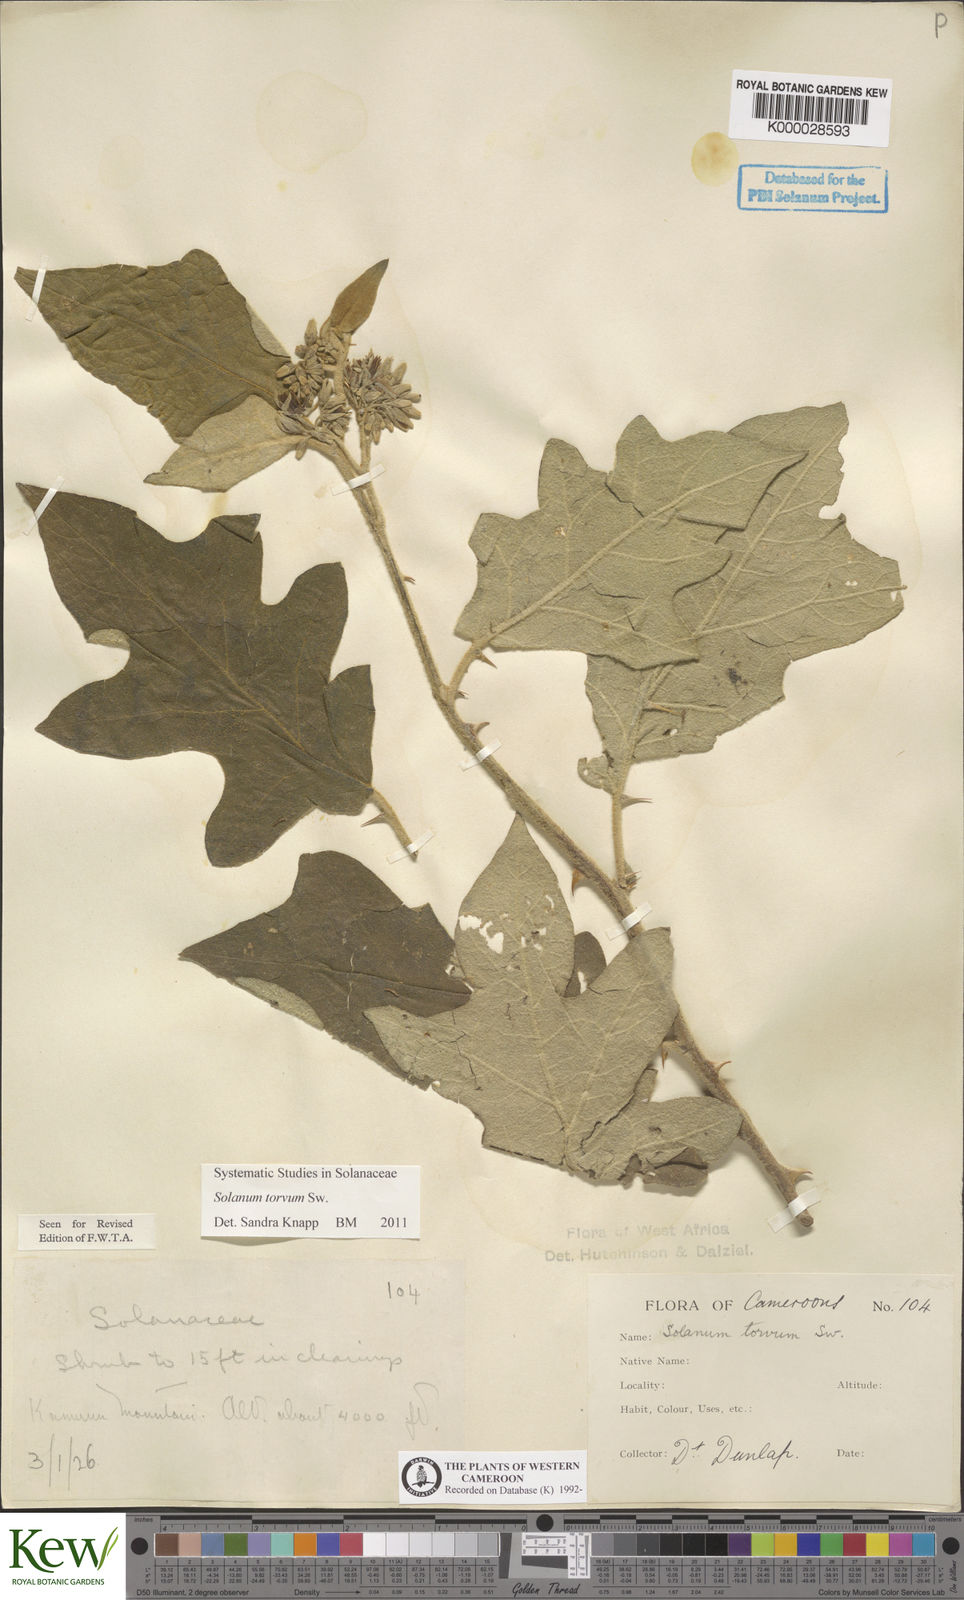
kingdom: Plantae
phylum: Tracheophyta
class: Magnoliopsida
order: Solanales
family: Solanaceae
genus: Solanum
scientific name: Solanum torvum
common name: Turkey berry
